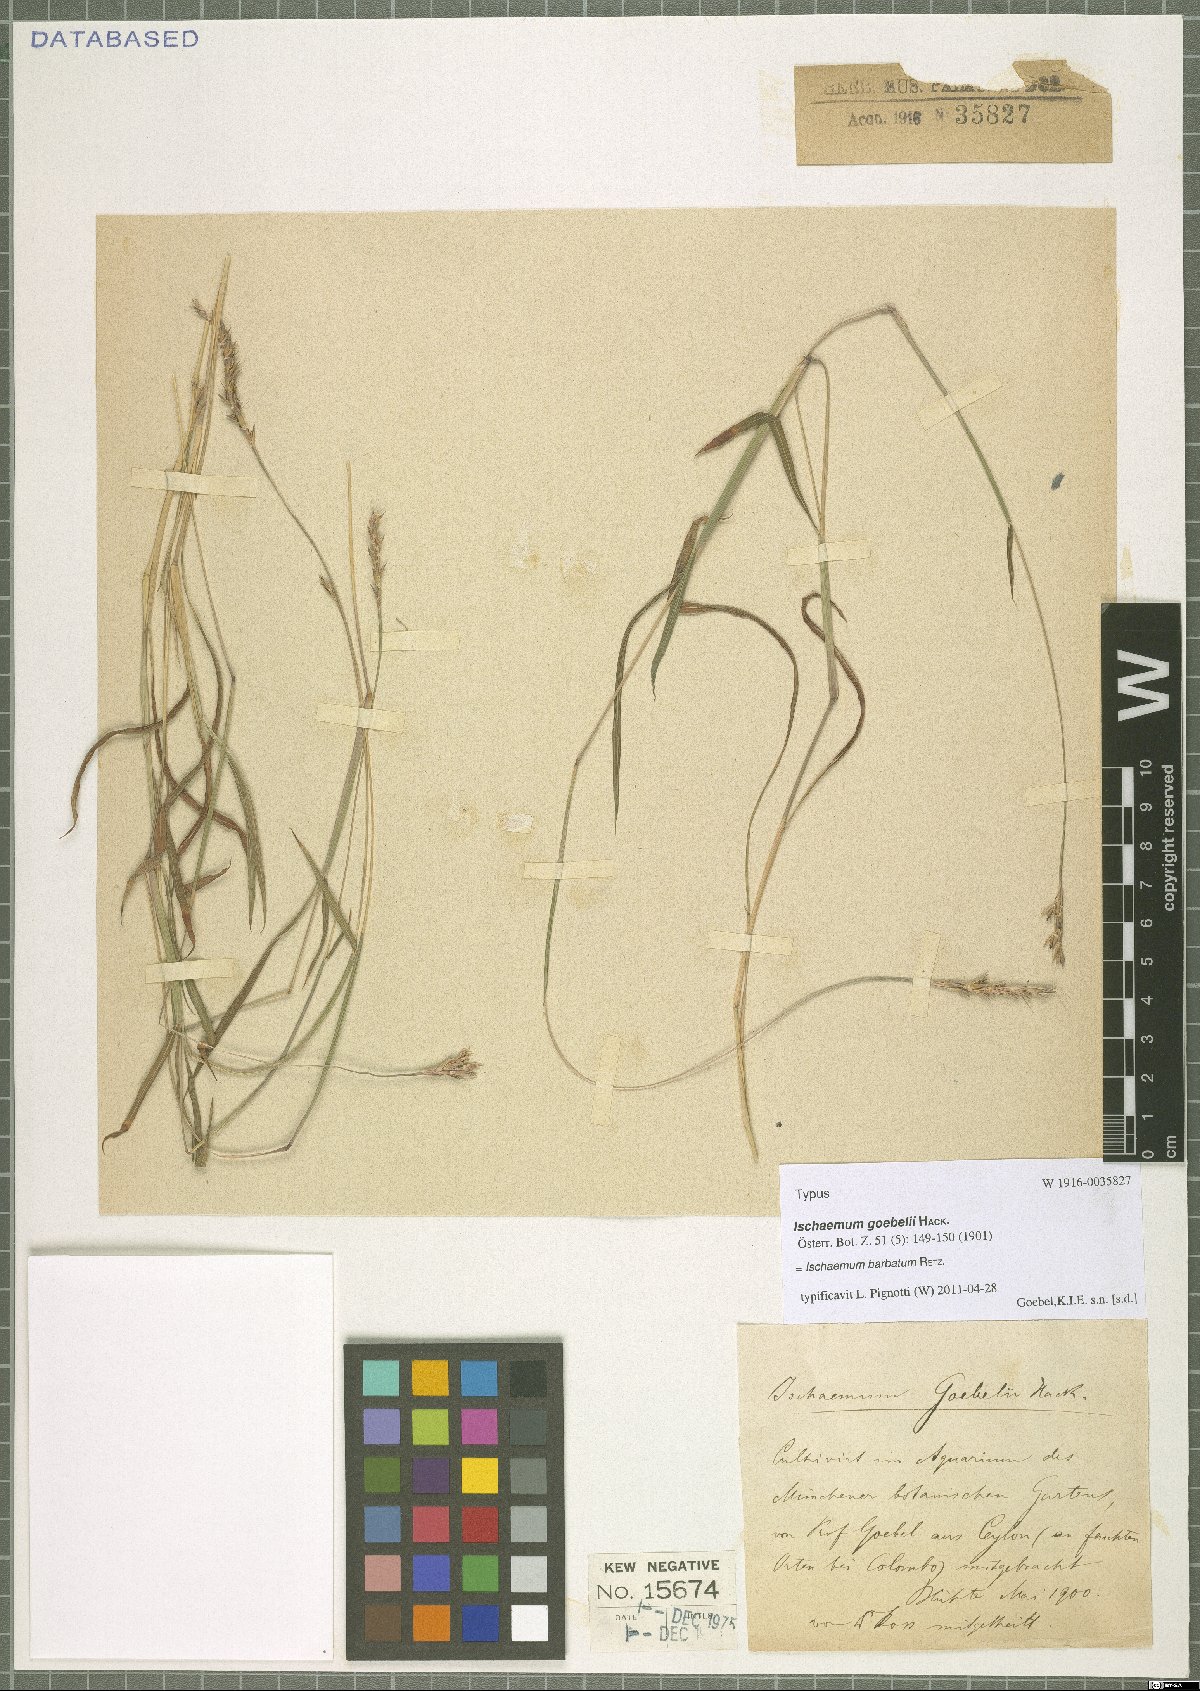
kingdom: Plantae
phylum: Tracheophyta
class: Liliopsida
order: Poales
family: Poaceae
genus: Ischaemum
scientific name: Ischaemum barbatum
